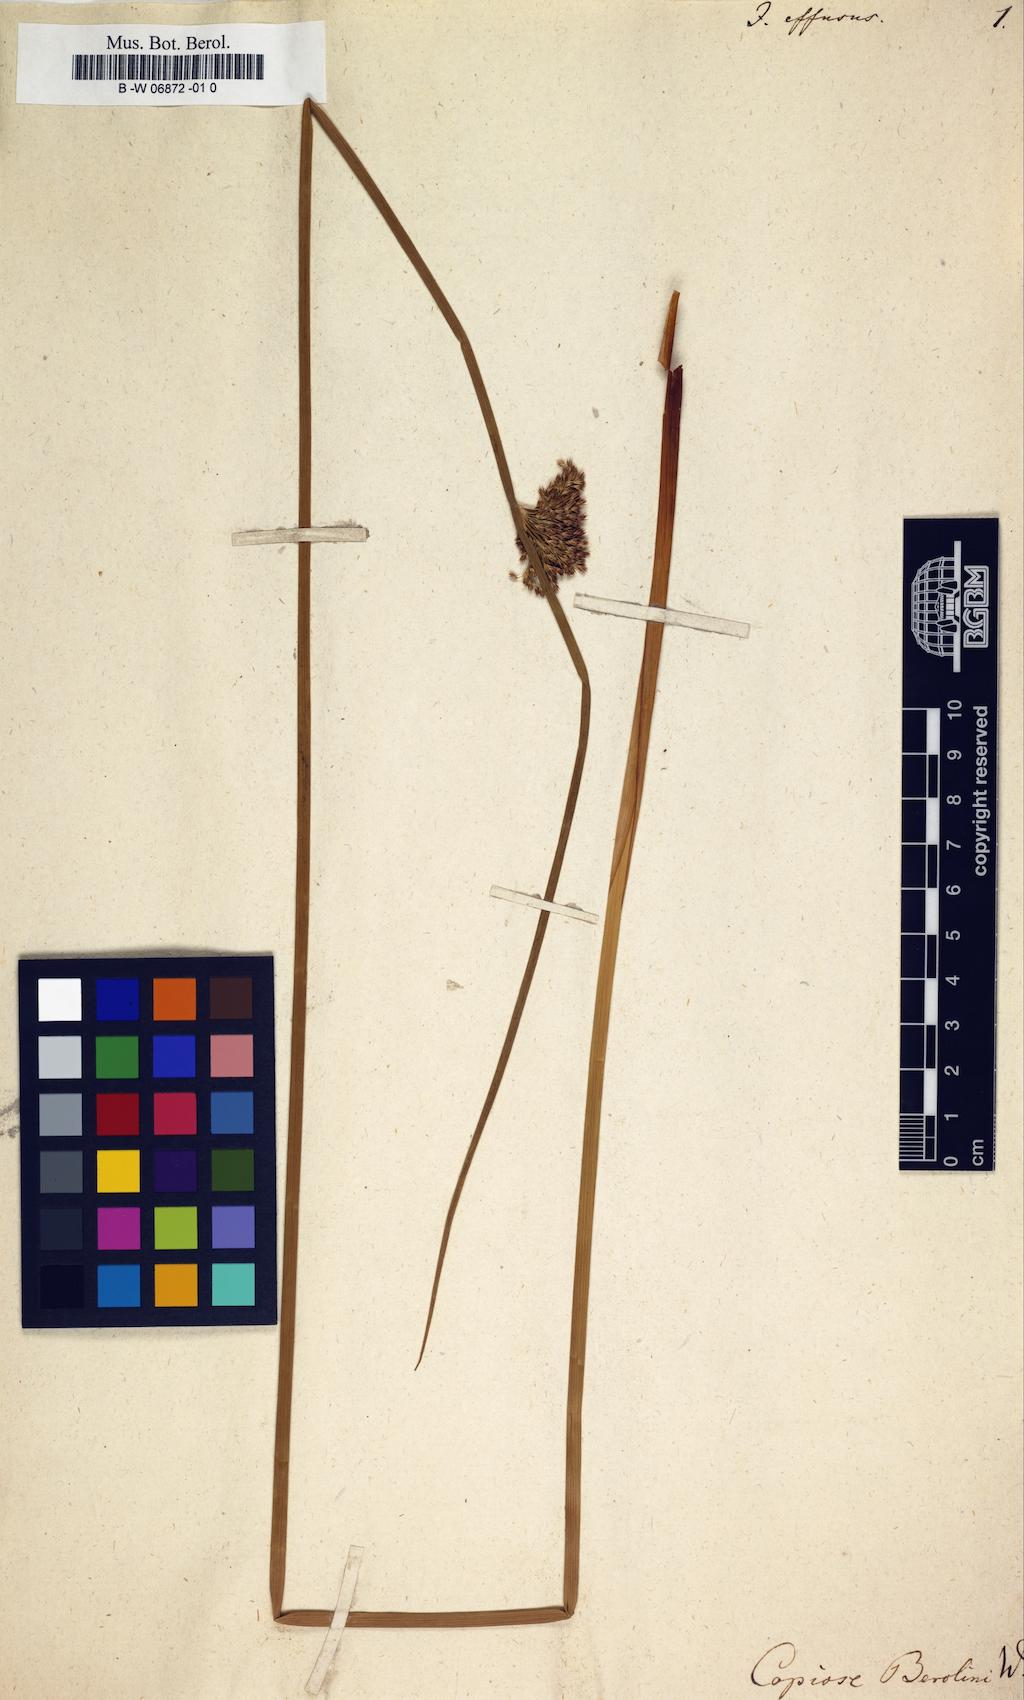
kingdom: Plantae
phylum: Tracheophyta
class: Liliopsida
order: Poales
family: Juncaceae
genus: Juncus
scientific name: Juncus effusus
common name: Soft rush
